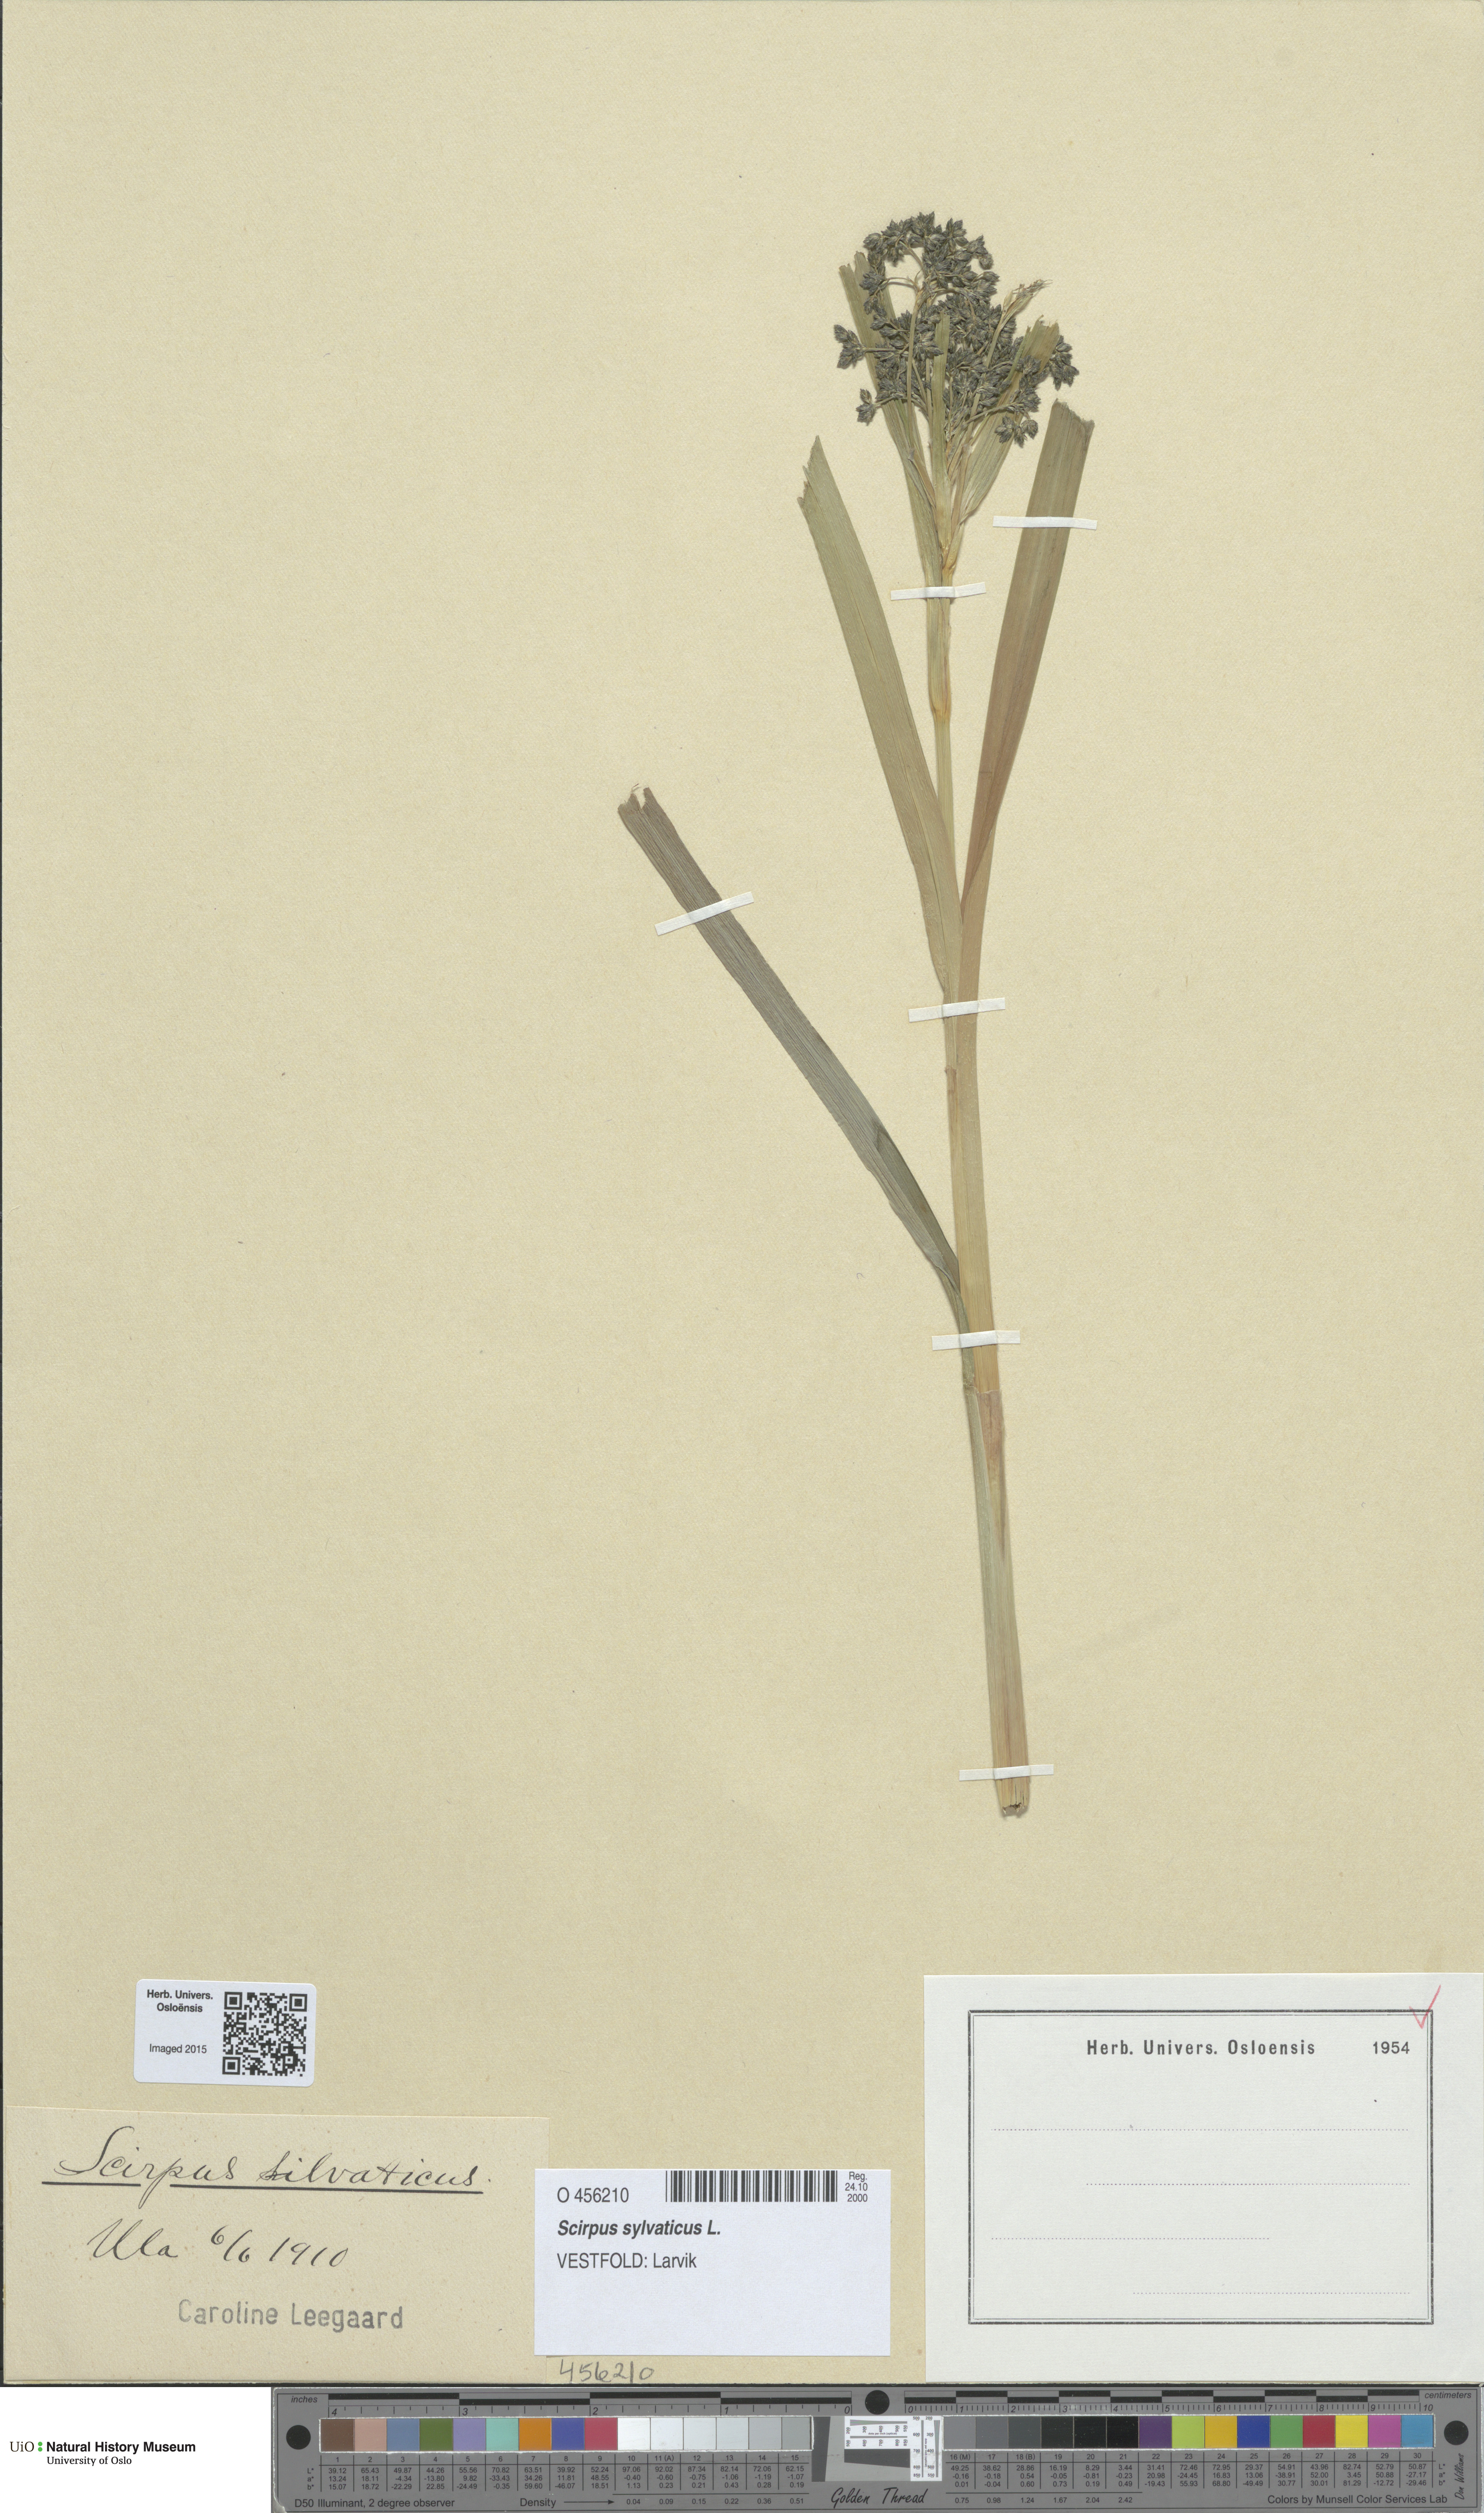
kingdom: Plantae
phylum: Tracheophyta
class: Liliopsida
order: Poales
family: Cyperaceae
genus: Scirpus
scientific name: Scirpus sylvaticus
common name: Wood club-rush
